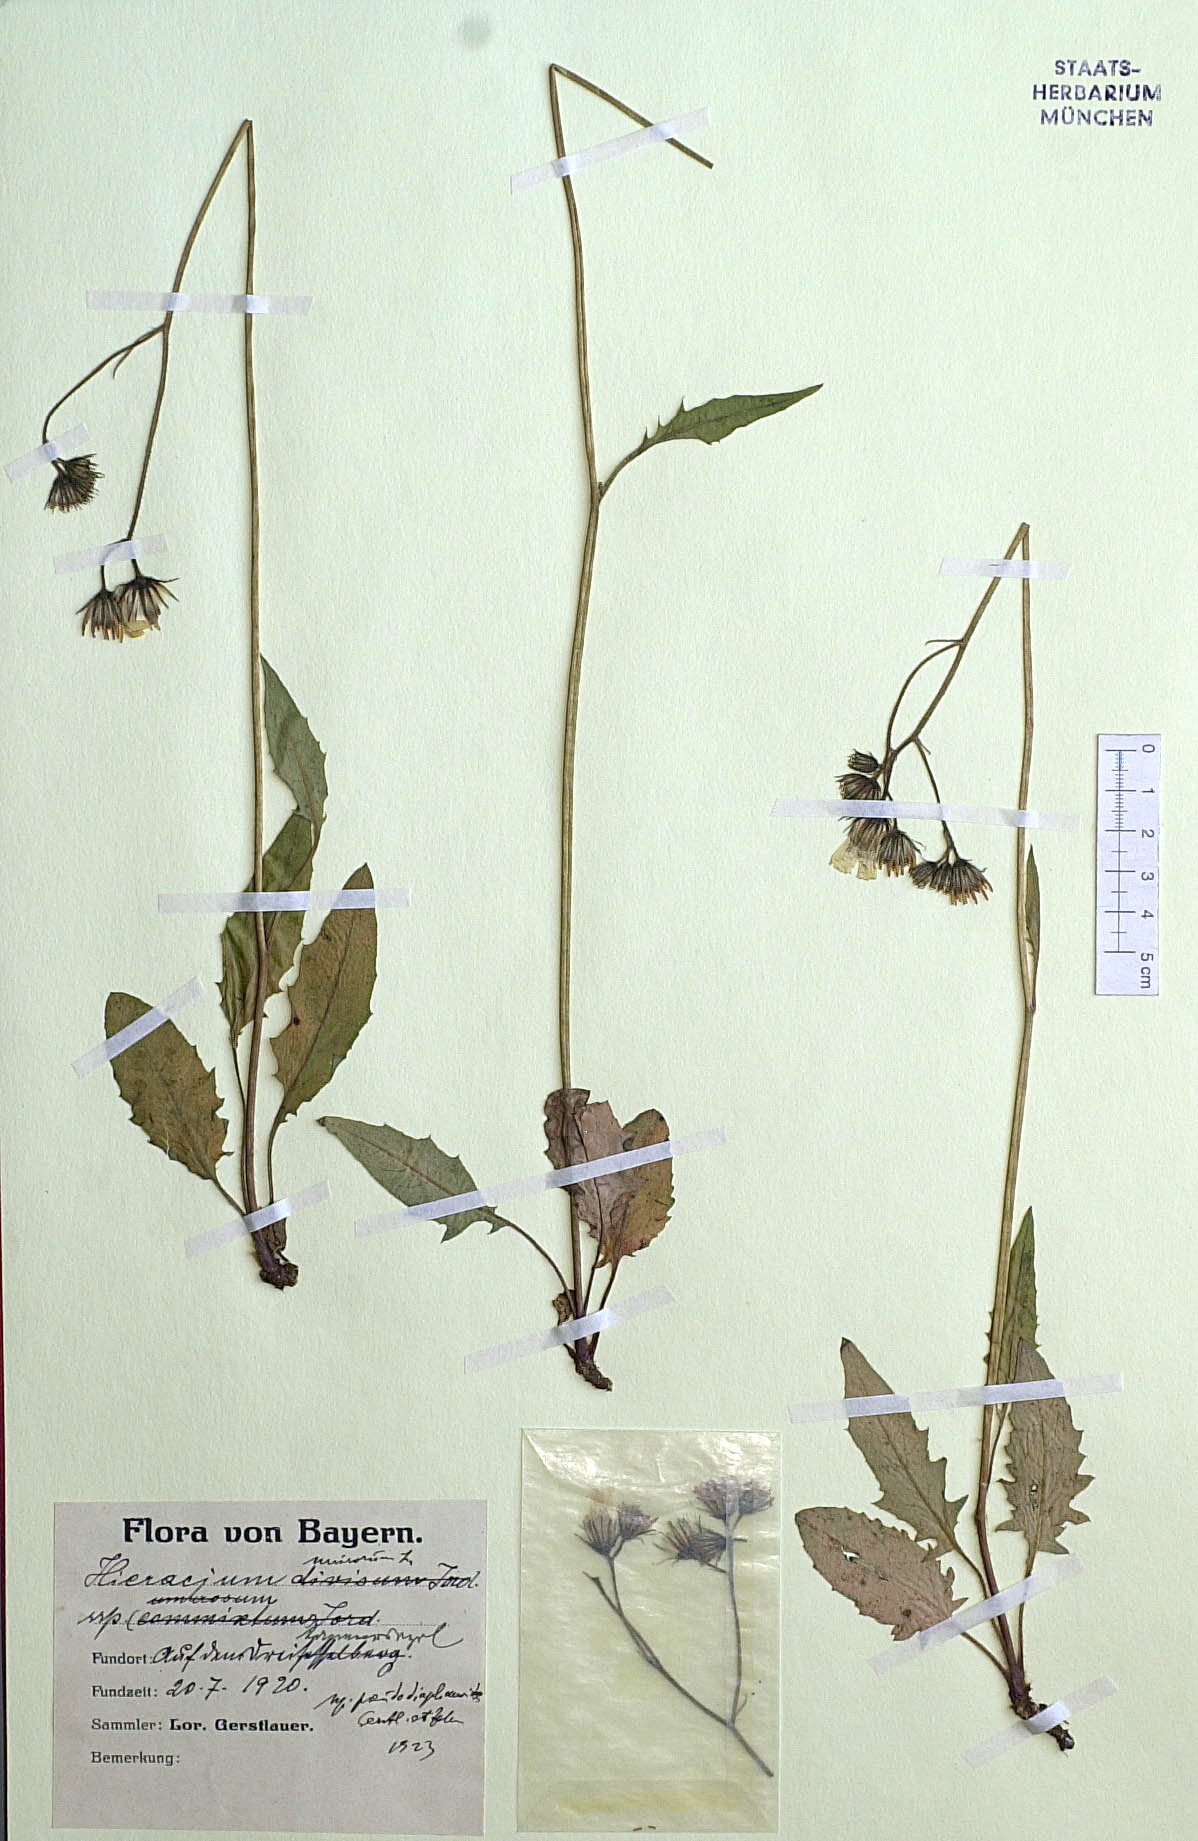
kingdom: Plantae
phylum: Tracheophyta
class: Magnoliopsida
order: Asterales
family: Asteraceae
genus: Hieracium
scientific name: Hieracium murorum
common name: Wall hawkweed
